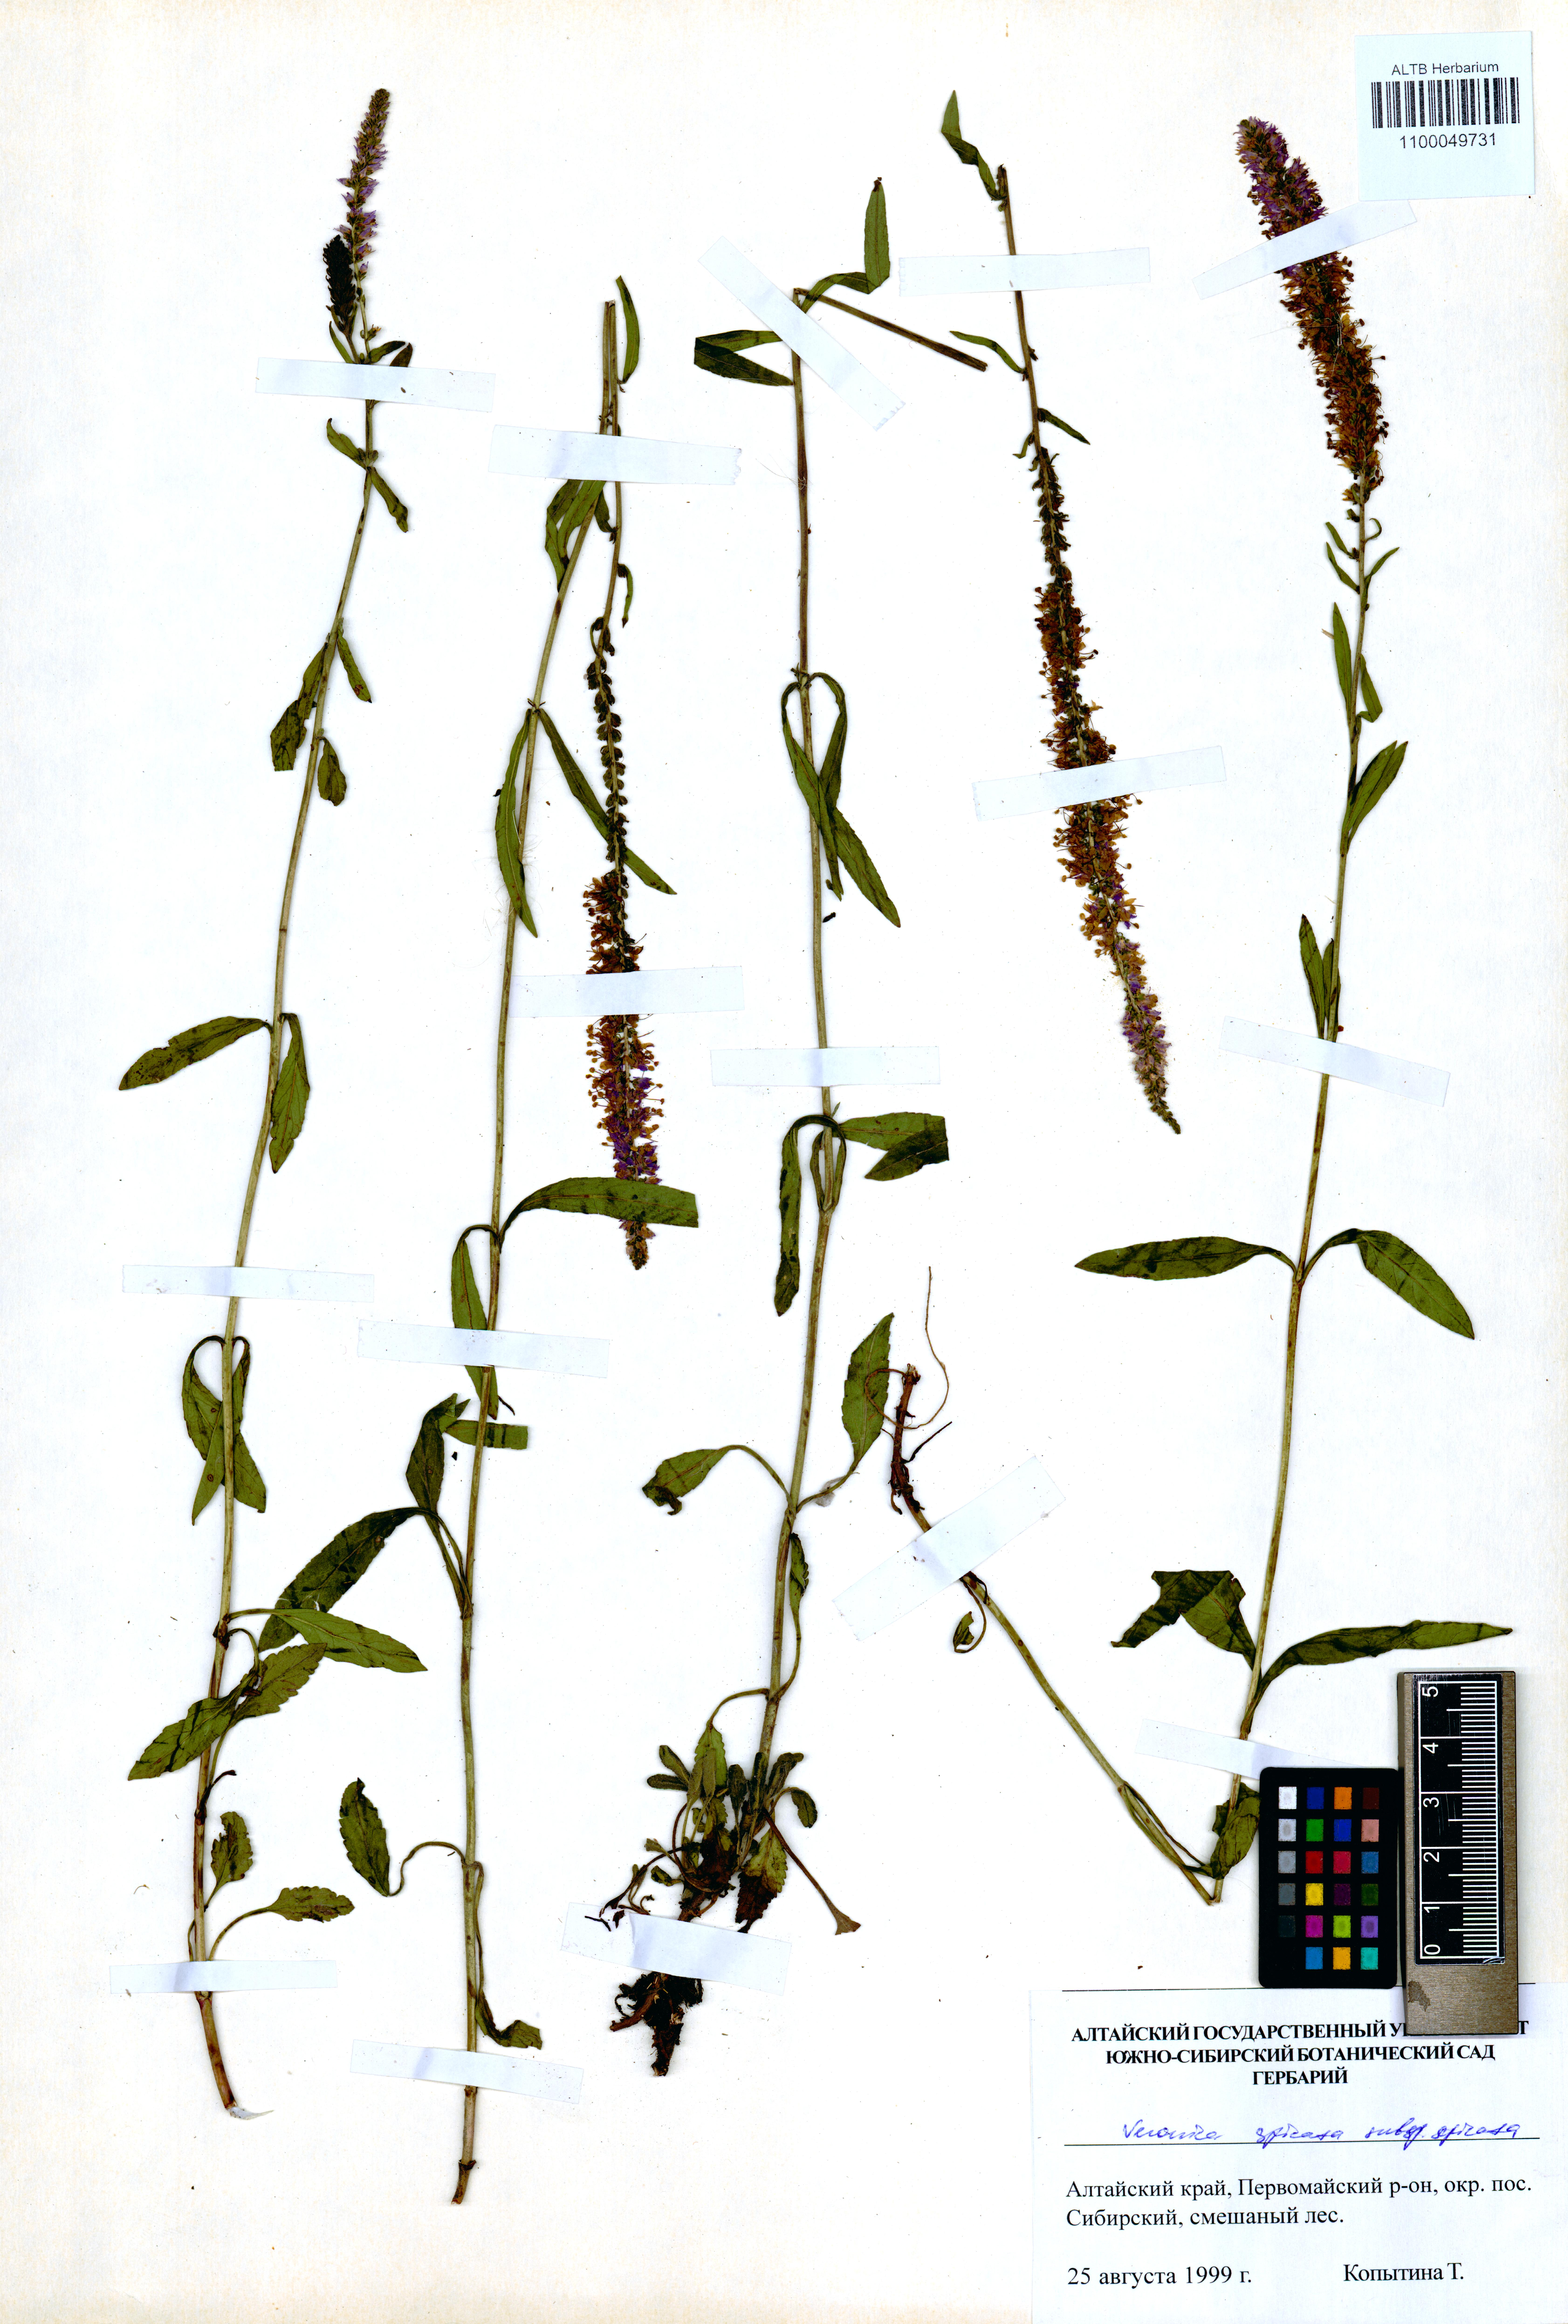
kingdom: Plantae
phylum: Tracheophyta
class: Magnoliopsida
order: Lamiales
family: Plantaginaceae
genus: Veronica
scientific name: Veronica spicata
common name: Spiked speedwell
